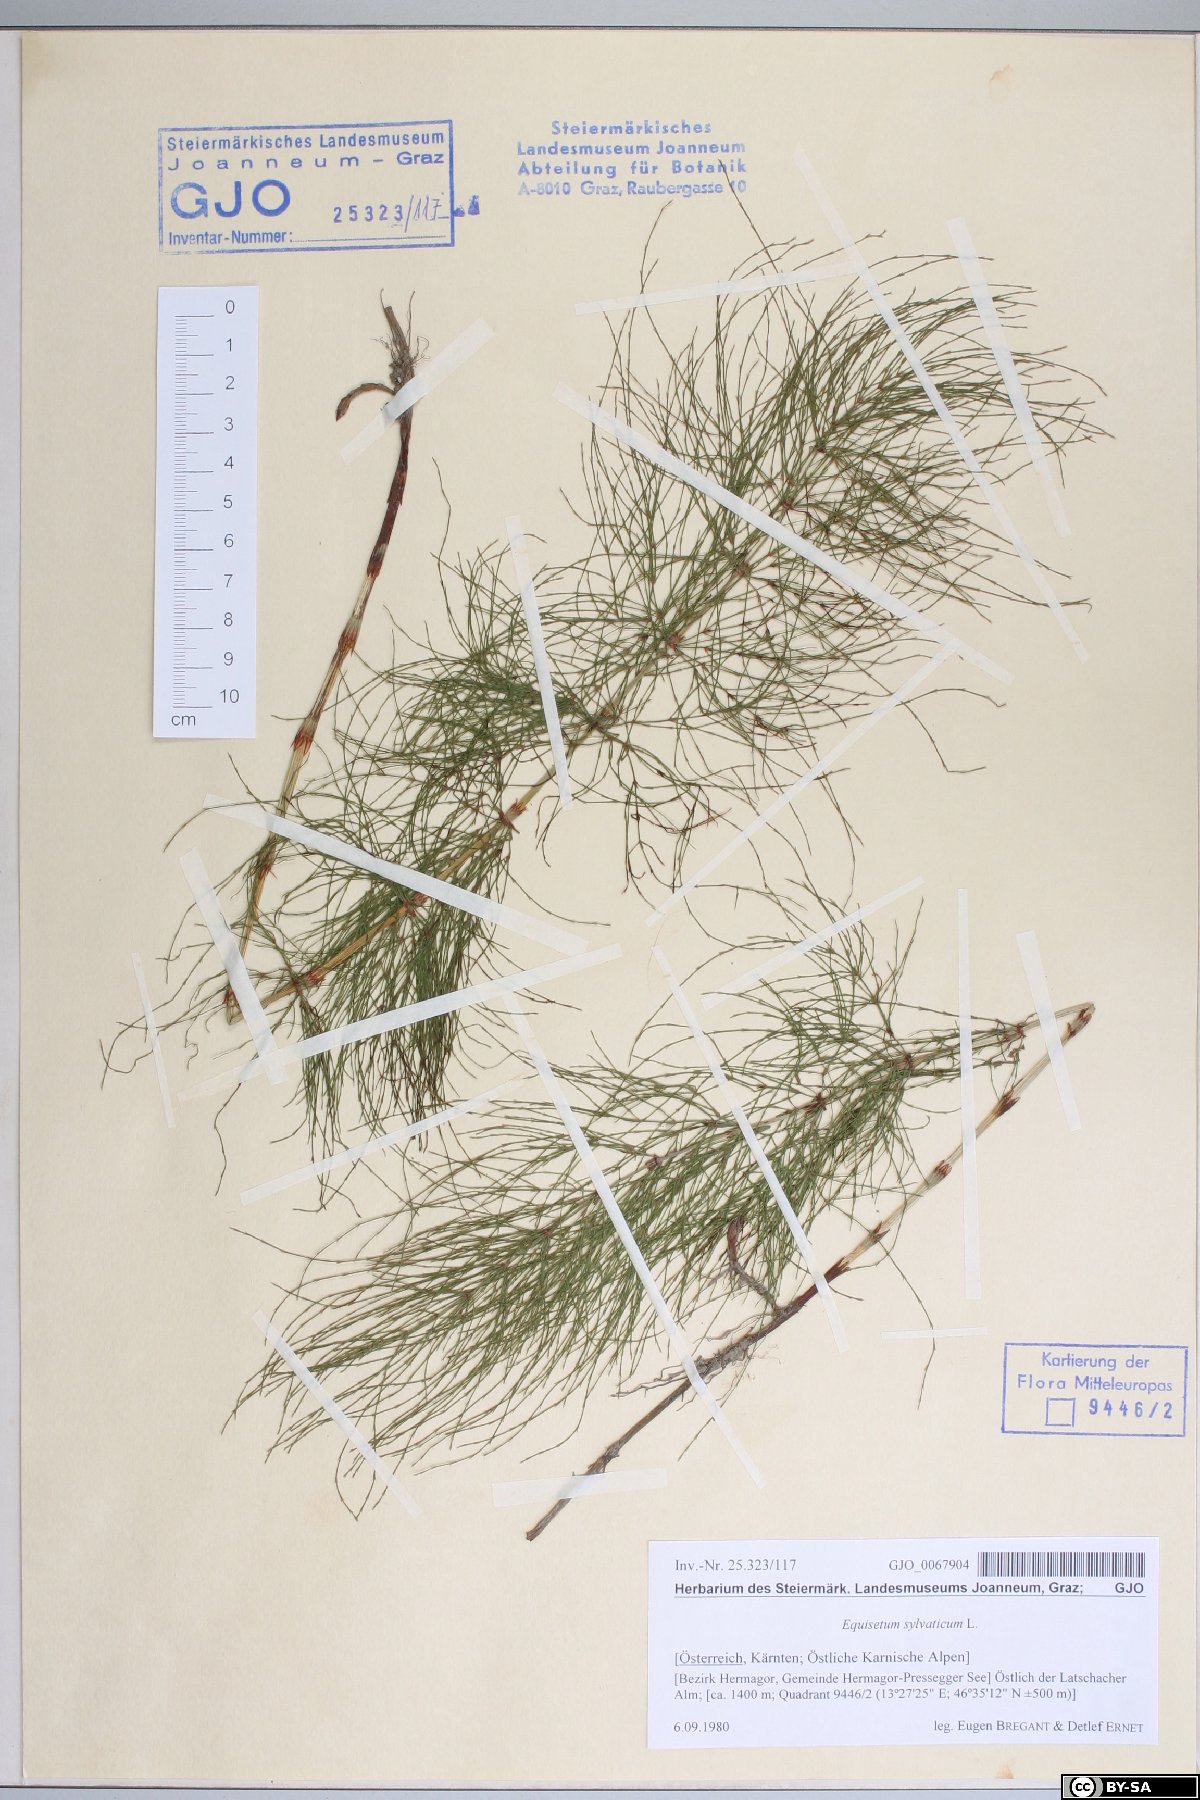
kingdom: Plantae
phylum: Tracheophyta
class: Polypodiopsida
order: Equisetales
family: Equisetaceae
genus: Equisetum
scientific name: Equisetum sylvaticum
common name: Wood horsetail
